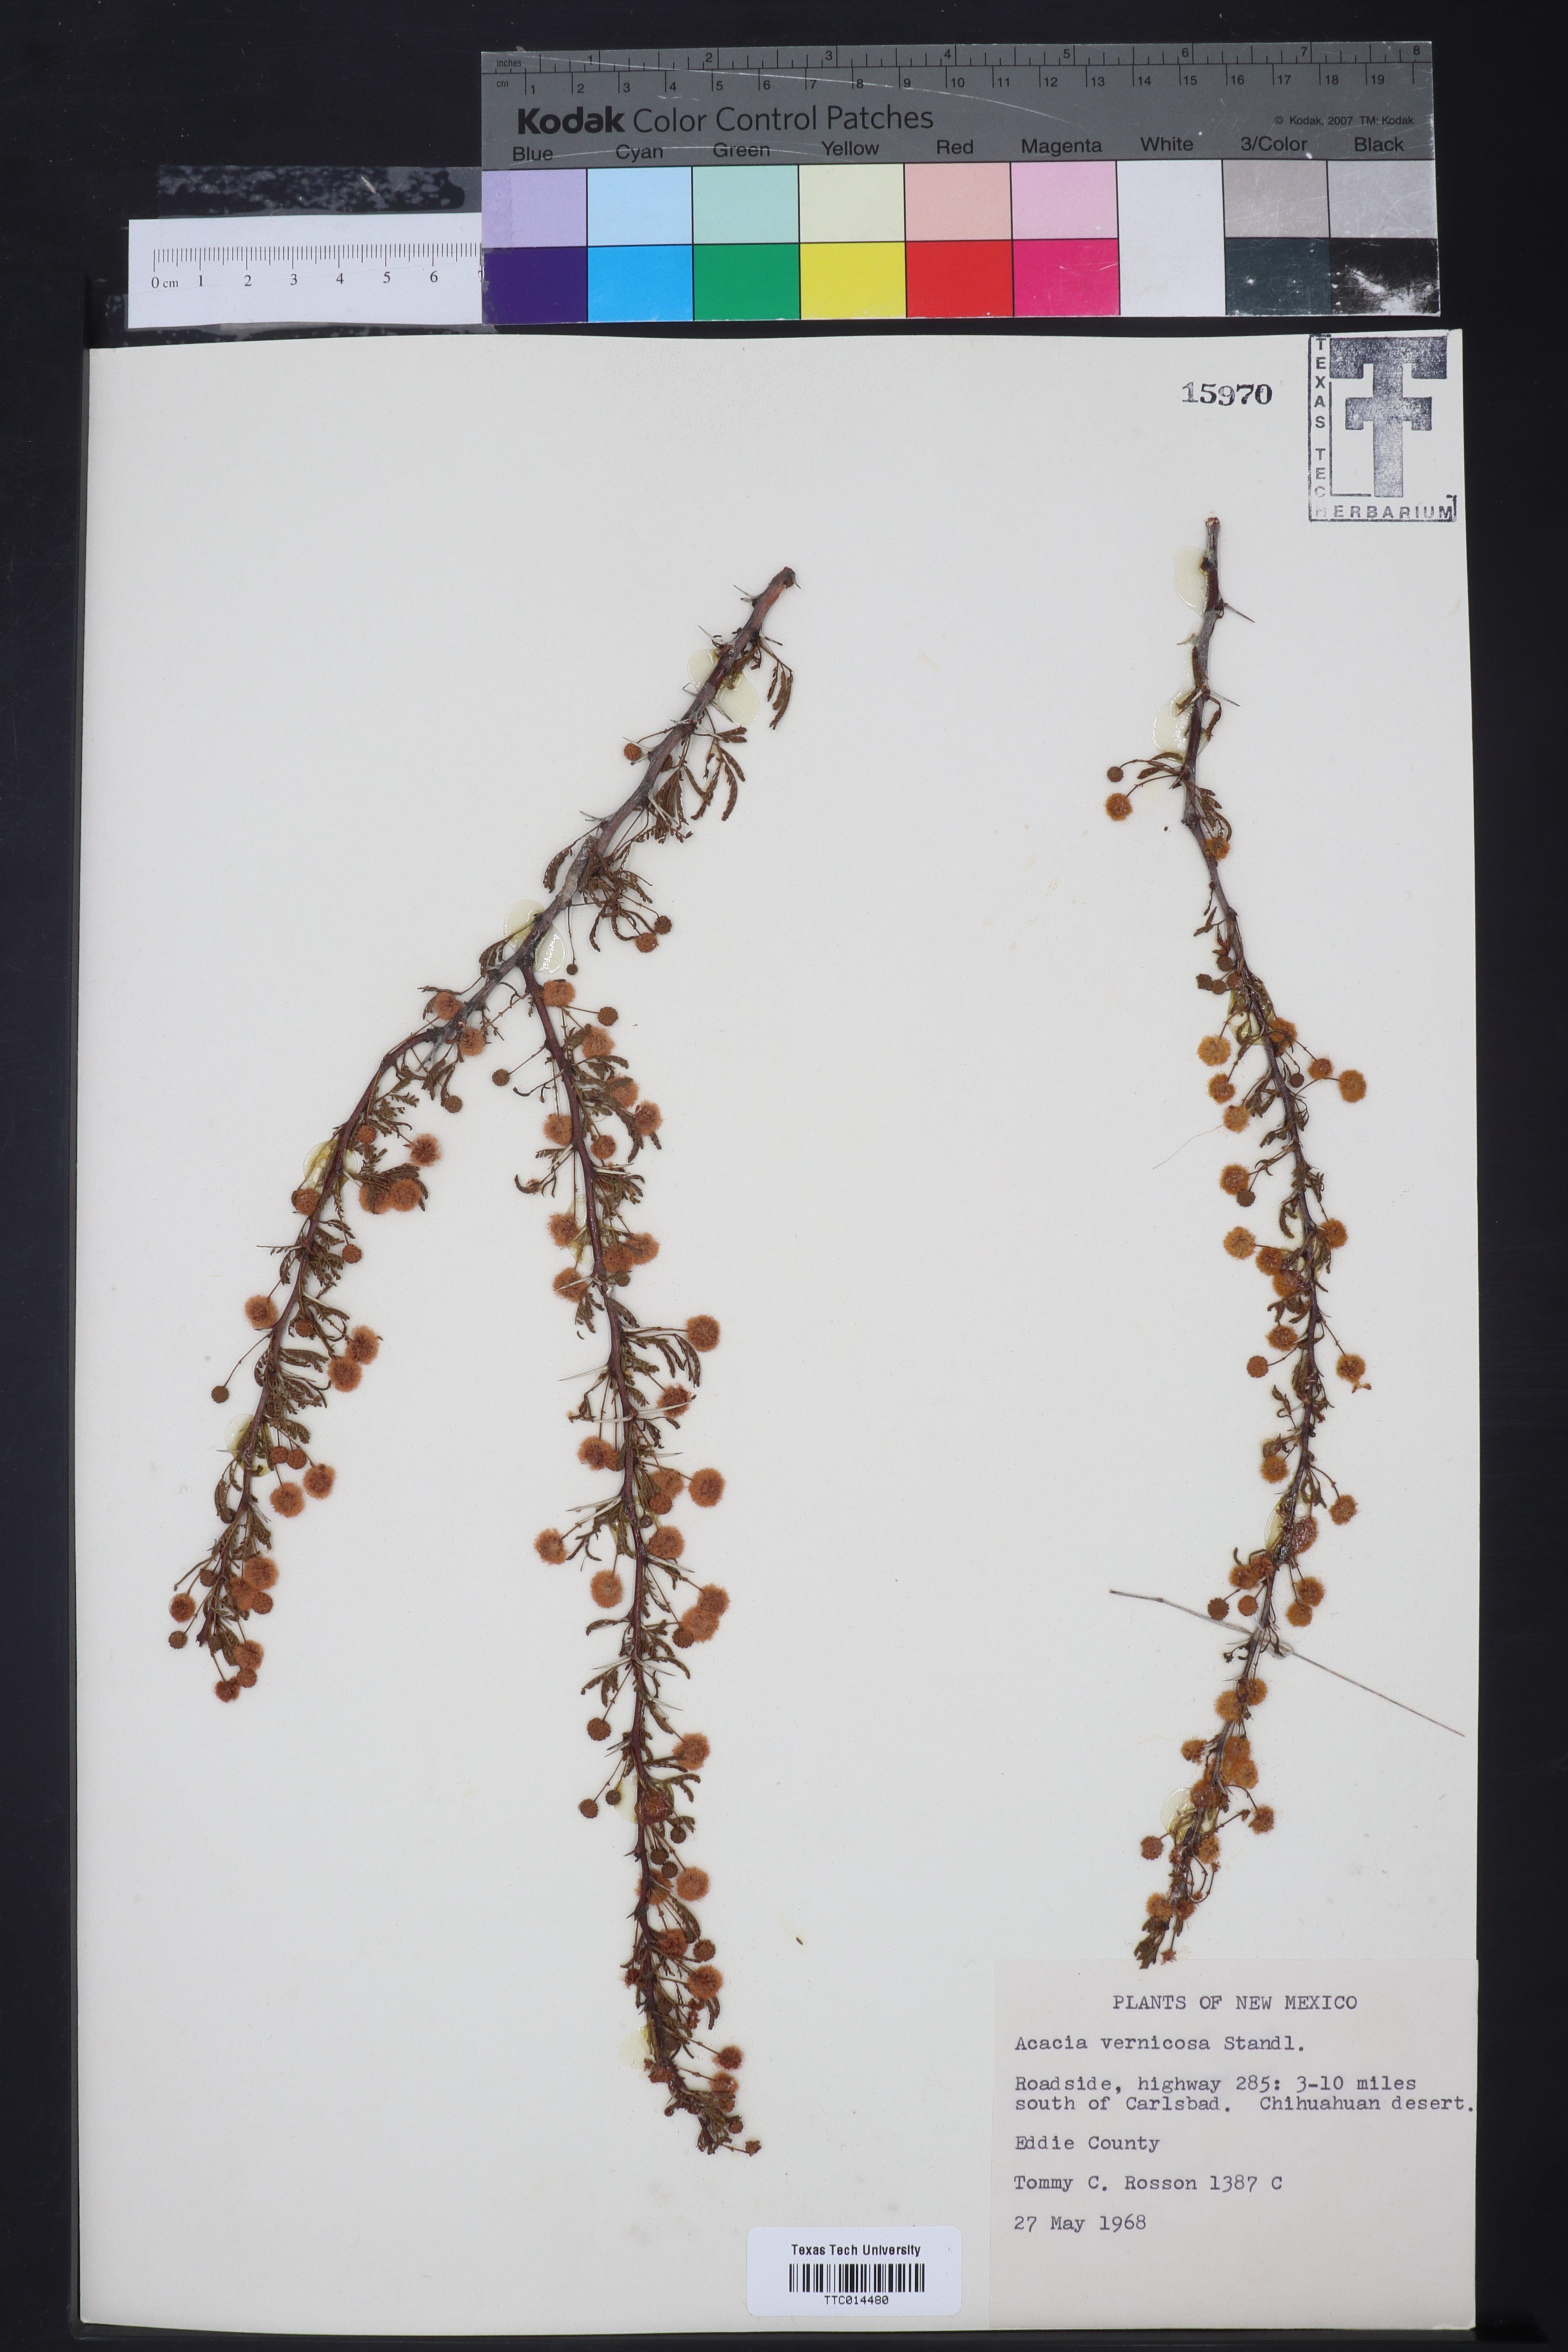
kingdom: Plantae
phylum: Tracheophyta
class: Magnoliopsida
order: Fabales
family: Fabaceae
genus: Vachellia
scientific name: Vachellia vernicosa
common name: Viscid acacia
